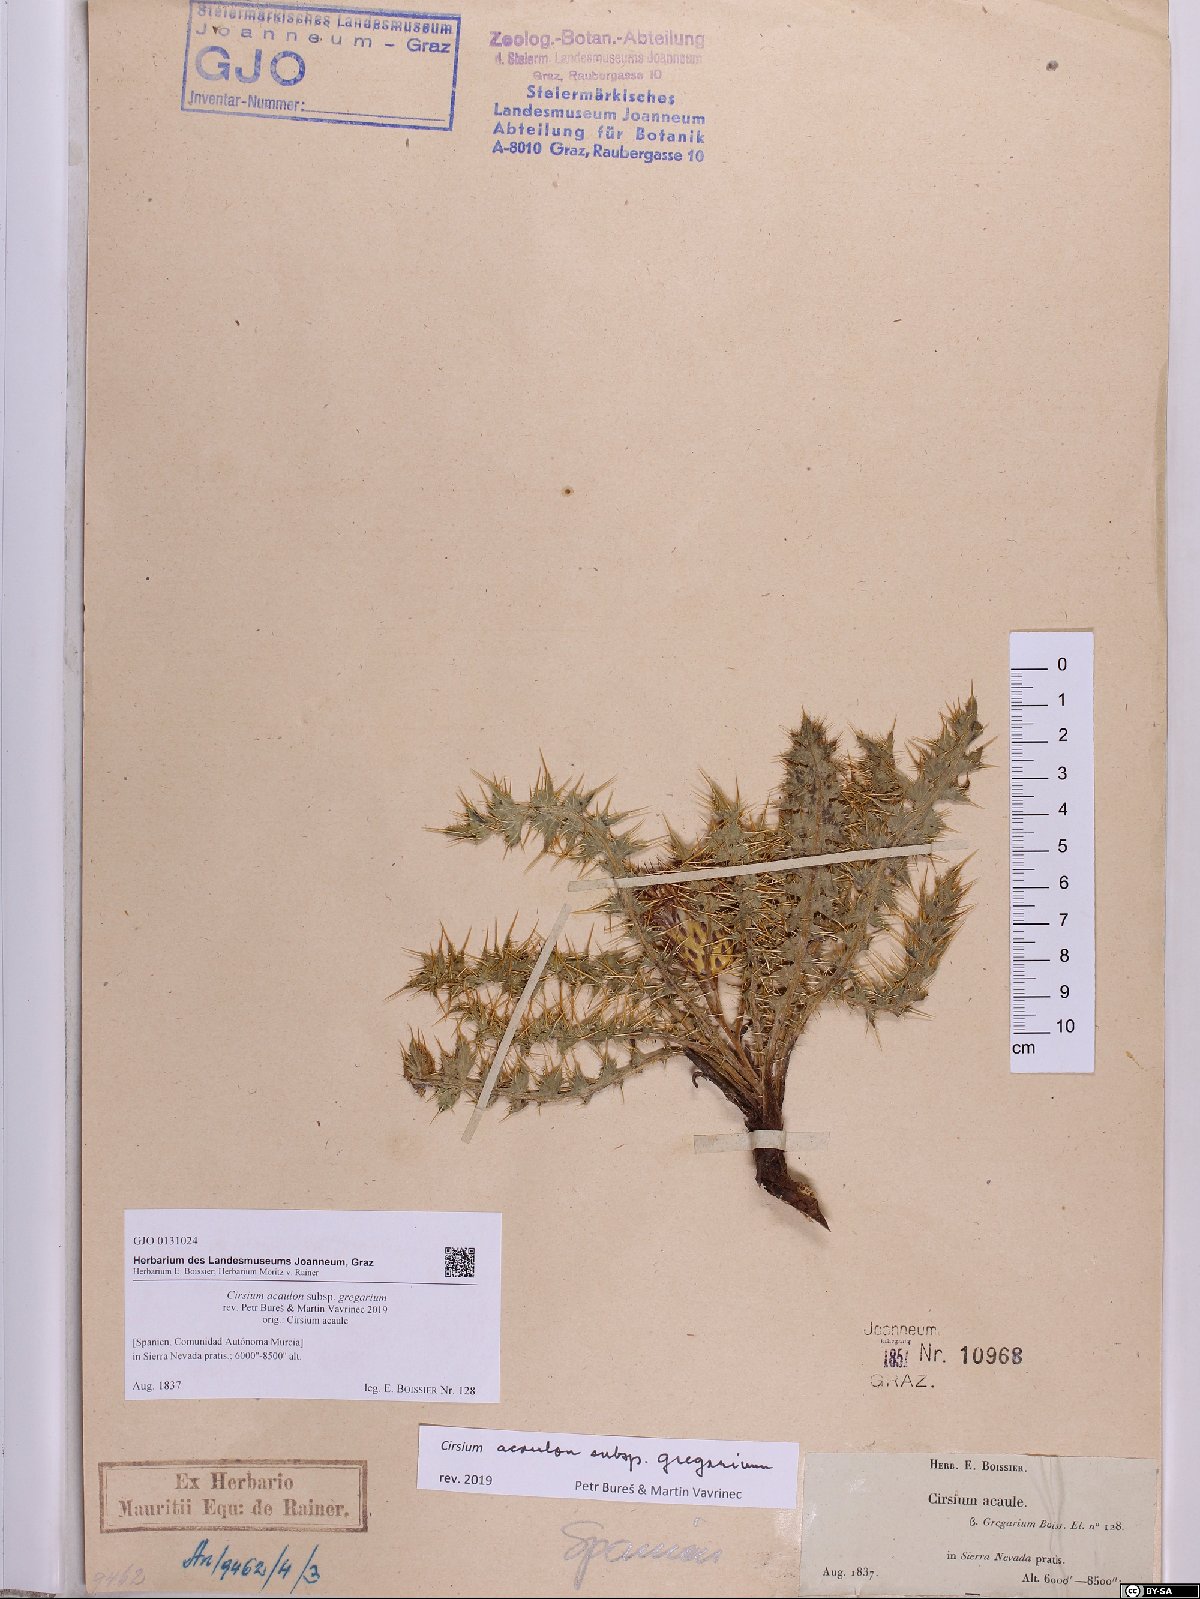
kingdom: Plantae
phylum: Tracheophyta
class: Magnoliopsida
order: Asterales
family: Asteraceae
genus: Cirsium
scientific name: Cirsium acaule
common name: Dwarf thistle
